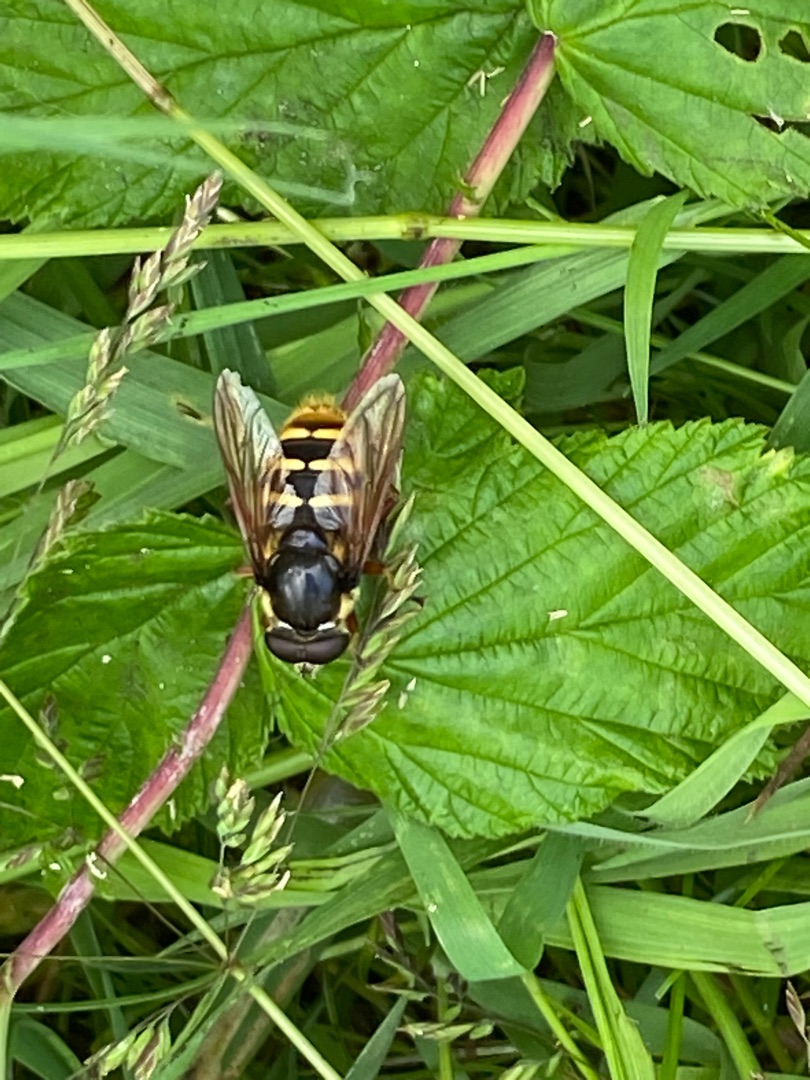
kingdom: Animalia
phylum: Arthropoda
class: Insecta
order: Diptera
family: Syrphidae
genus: Sericomyia
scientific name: Sericomyia silentis
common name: Tørve-silkesvirreflue
